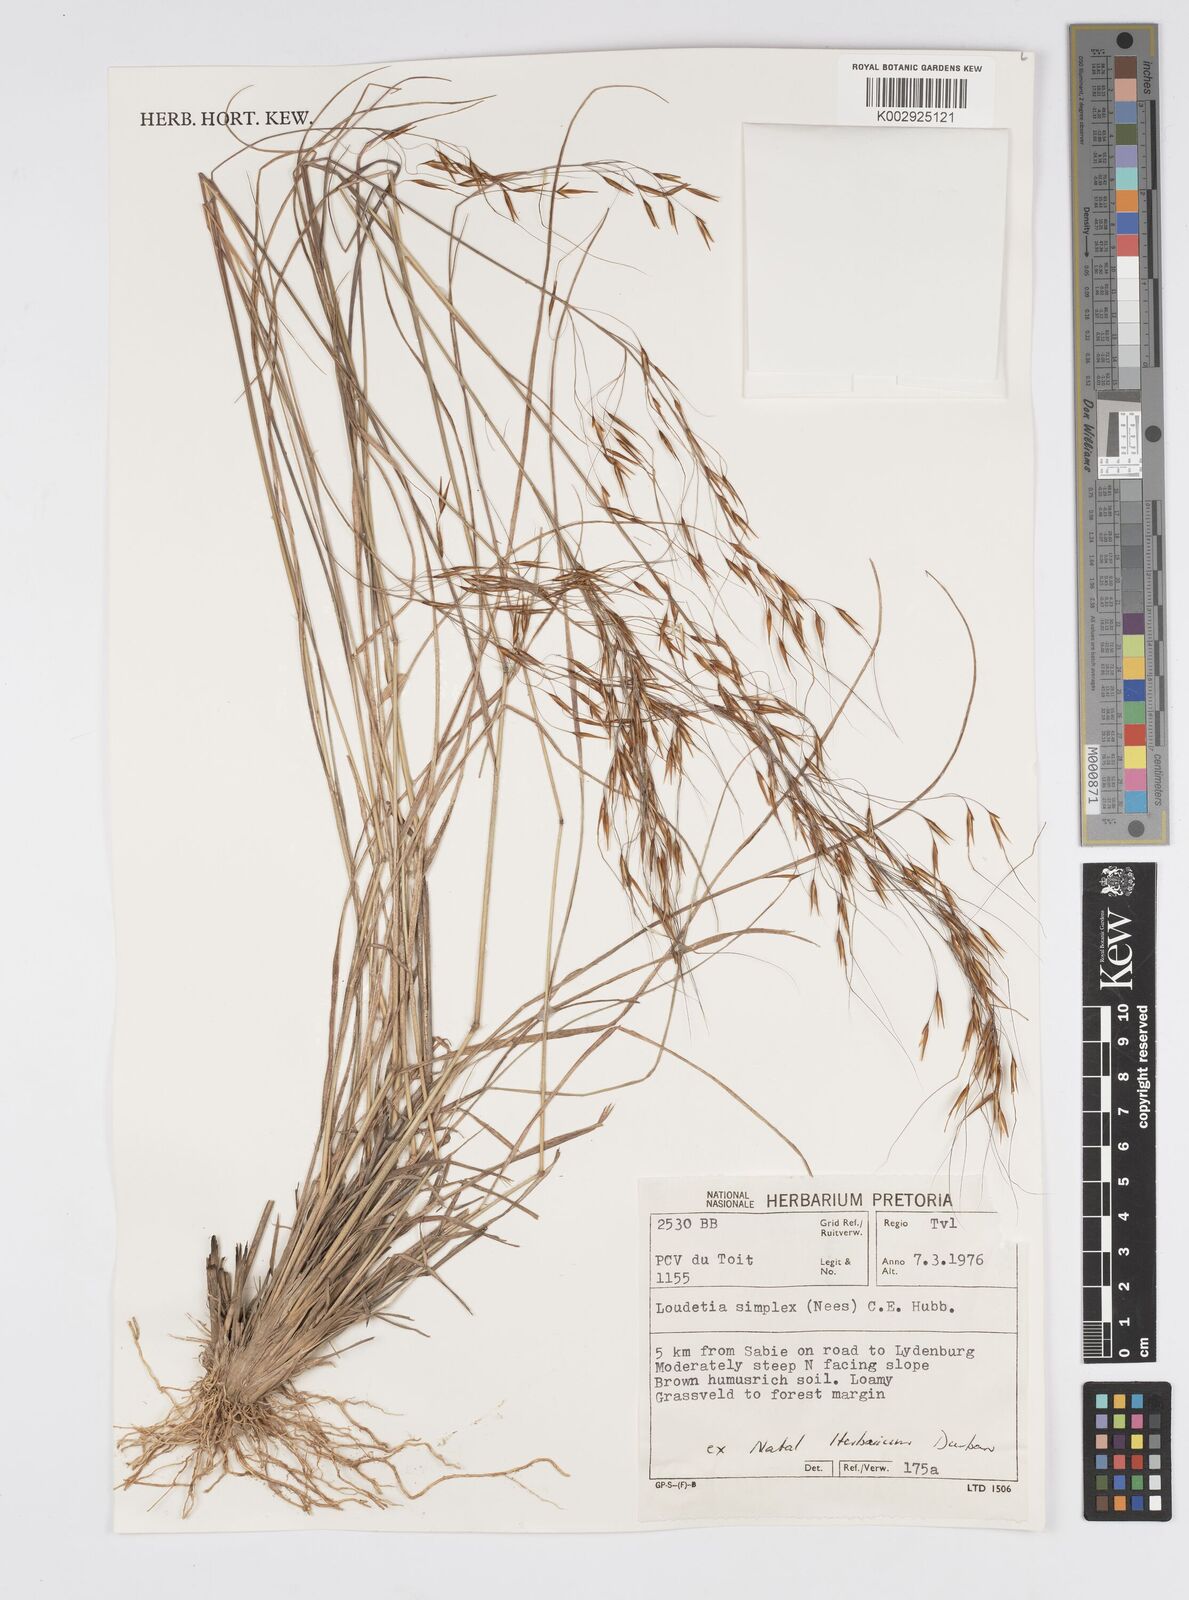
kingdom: Plantae
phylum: Tracheophyta
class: Liliopsida
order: Poales
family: Poaceae
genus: Loudetia
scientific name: Loudetia simplex
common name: Common russet grass
